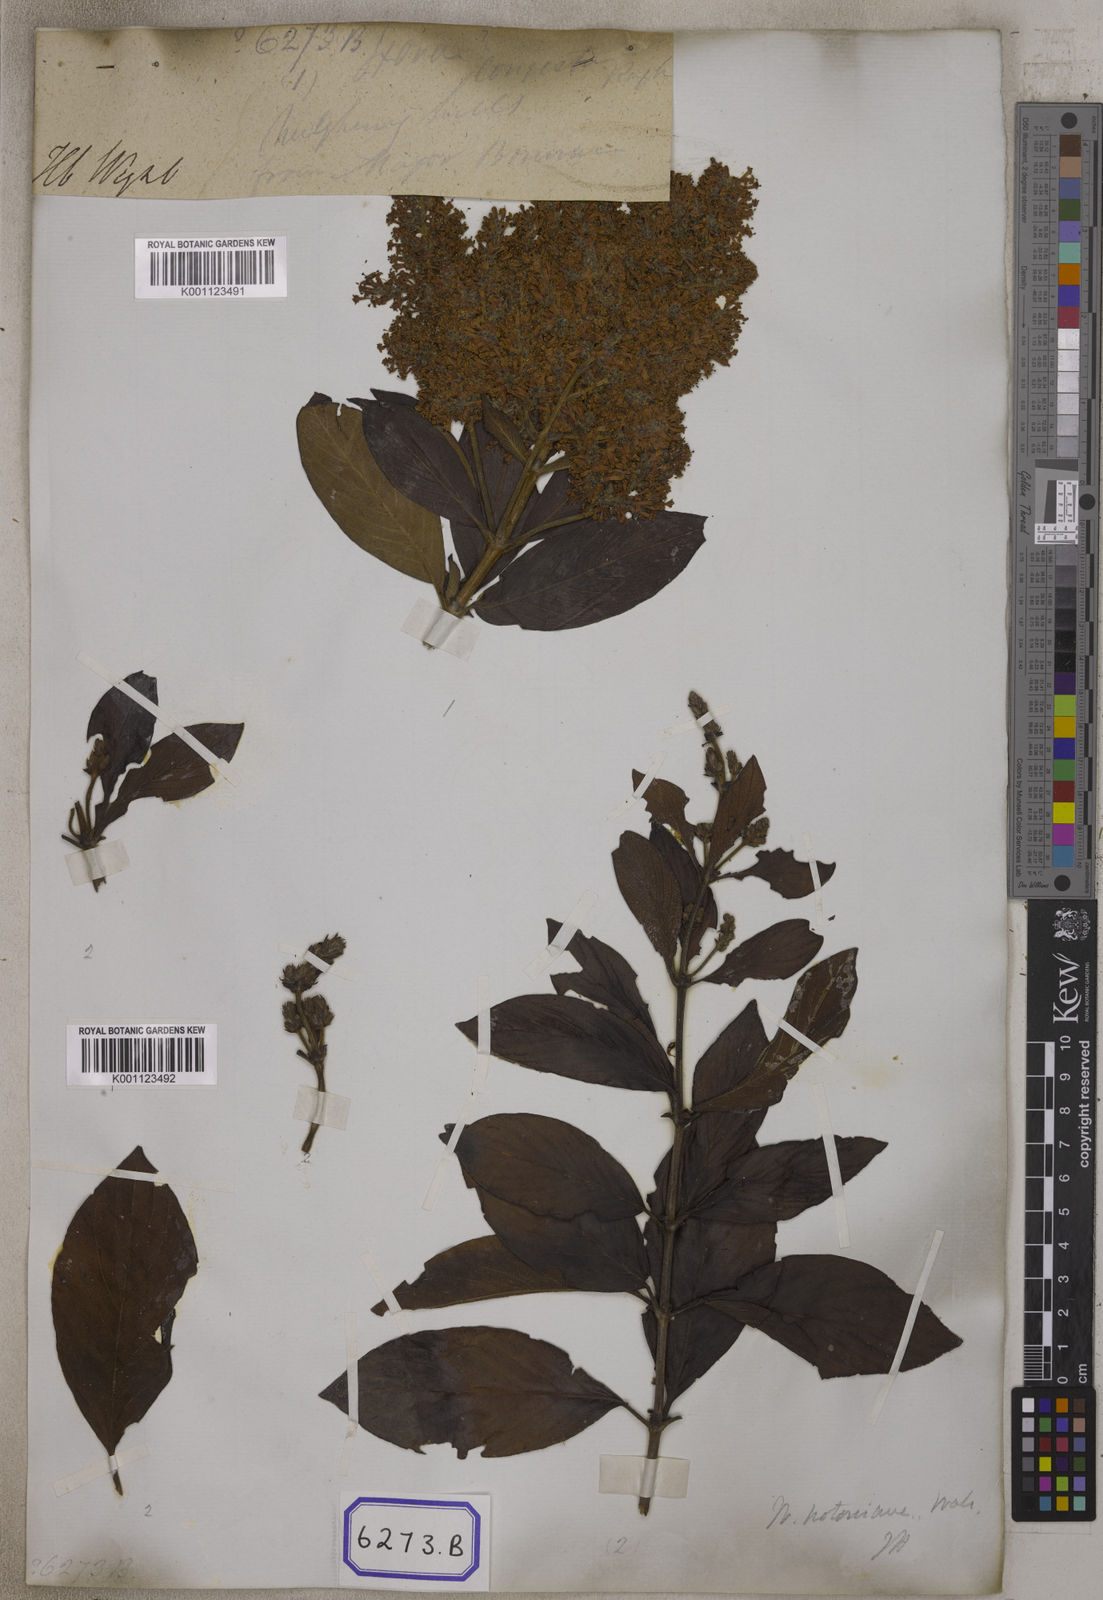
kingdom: Plantae
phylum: Tracheophyta
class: Magnoliopsida
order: Gentianales
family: Rubiaceae
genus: Wendlandia
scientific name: Wendlandia
